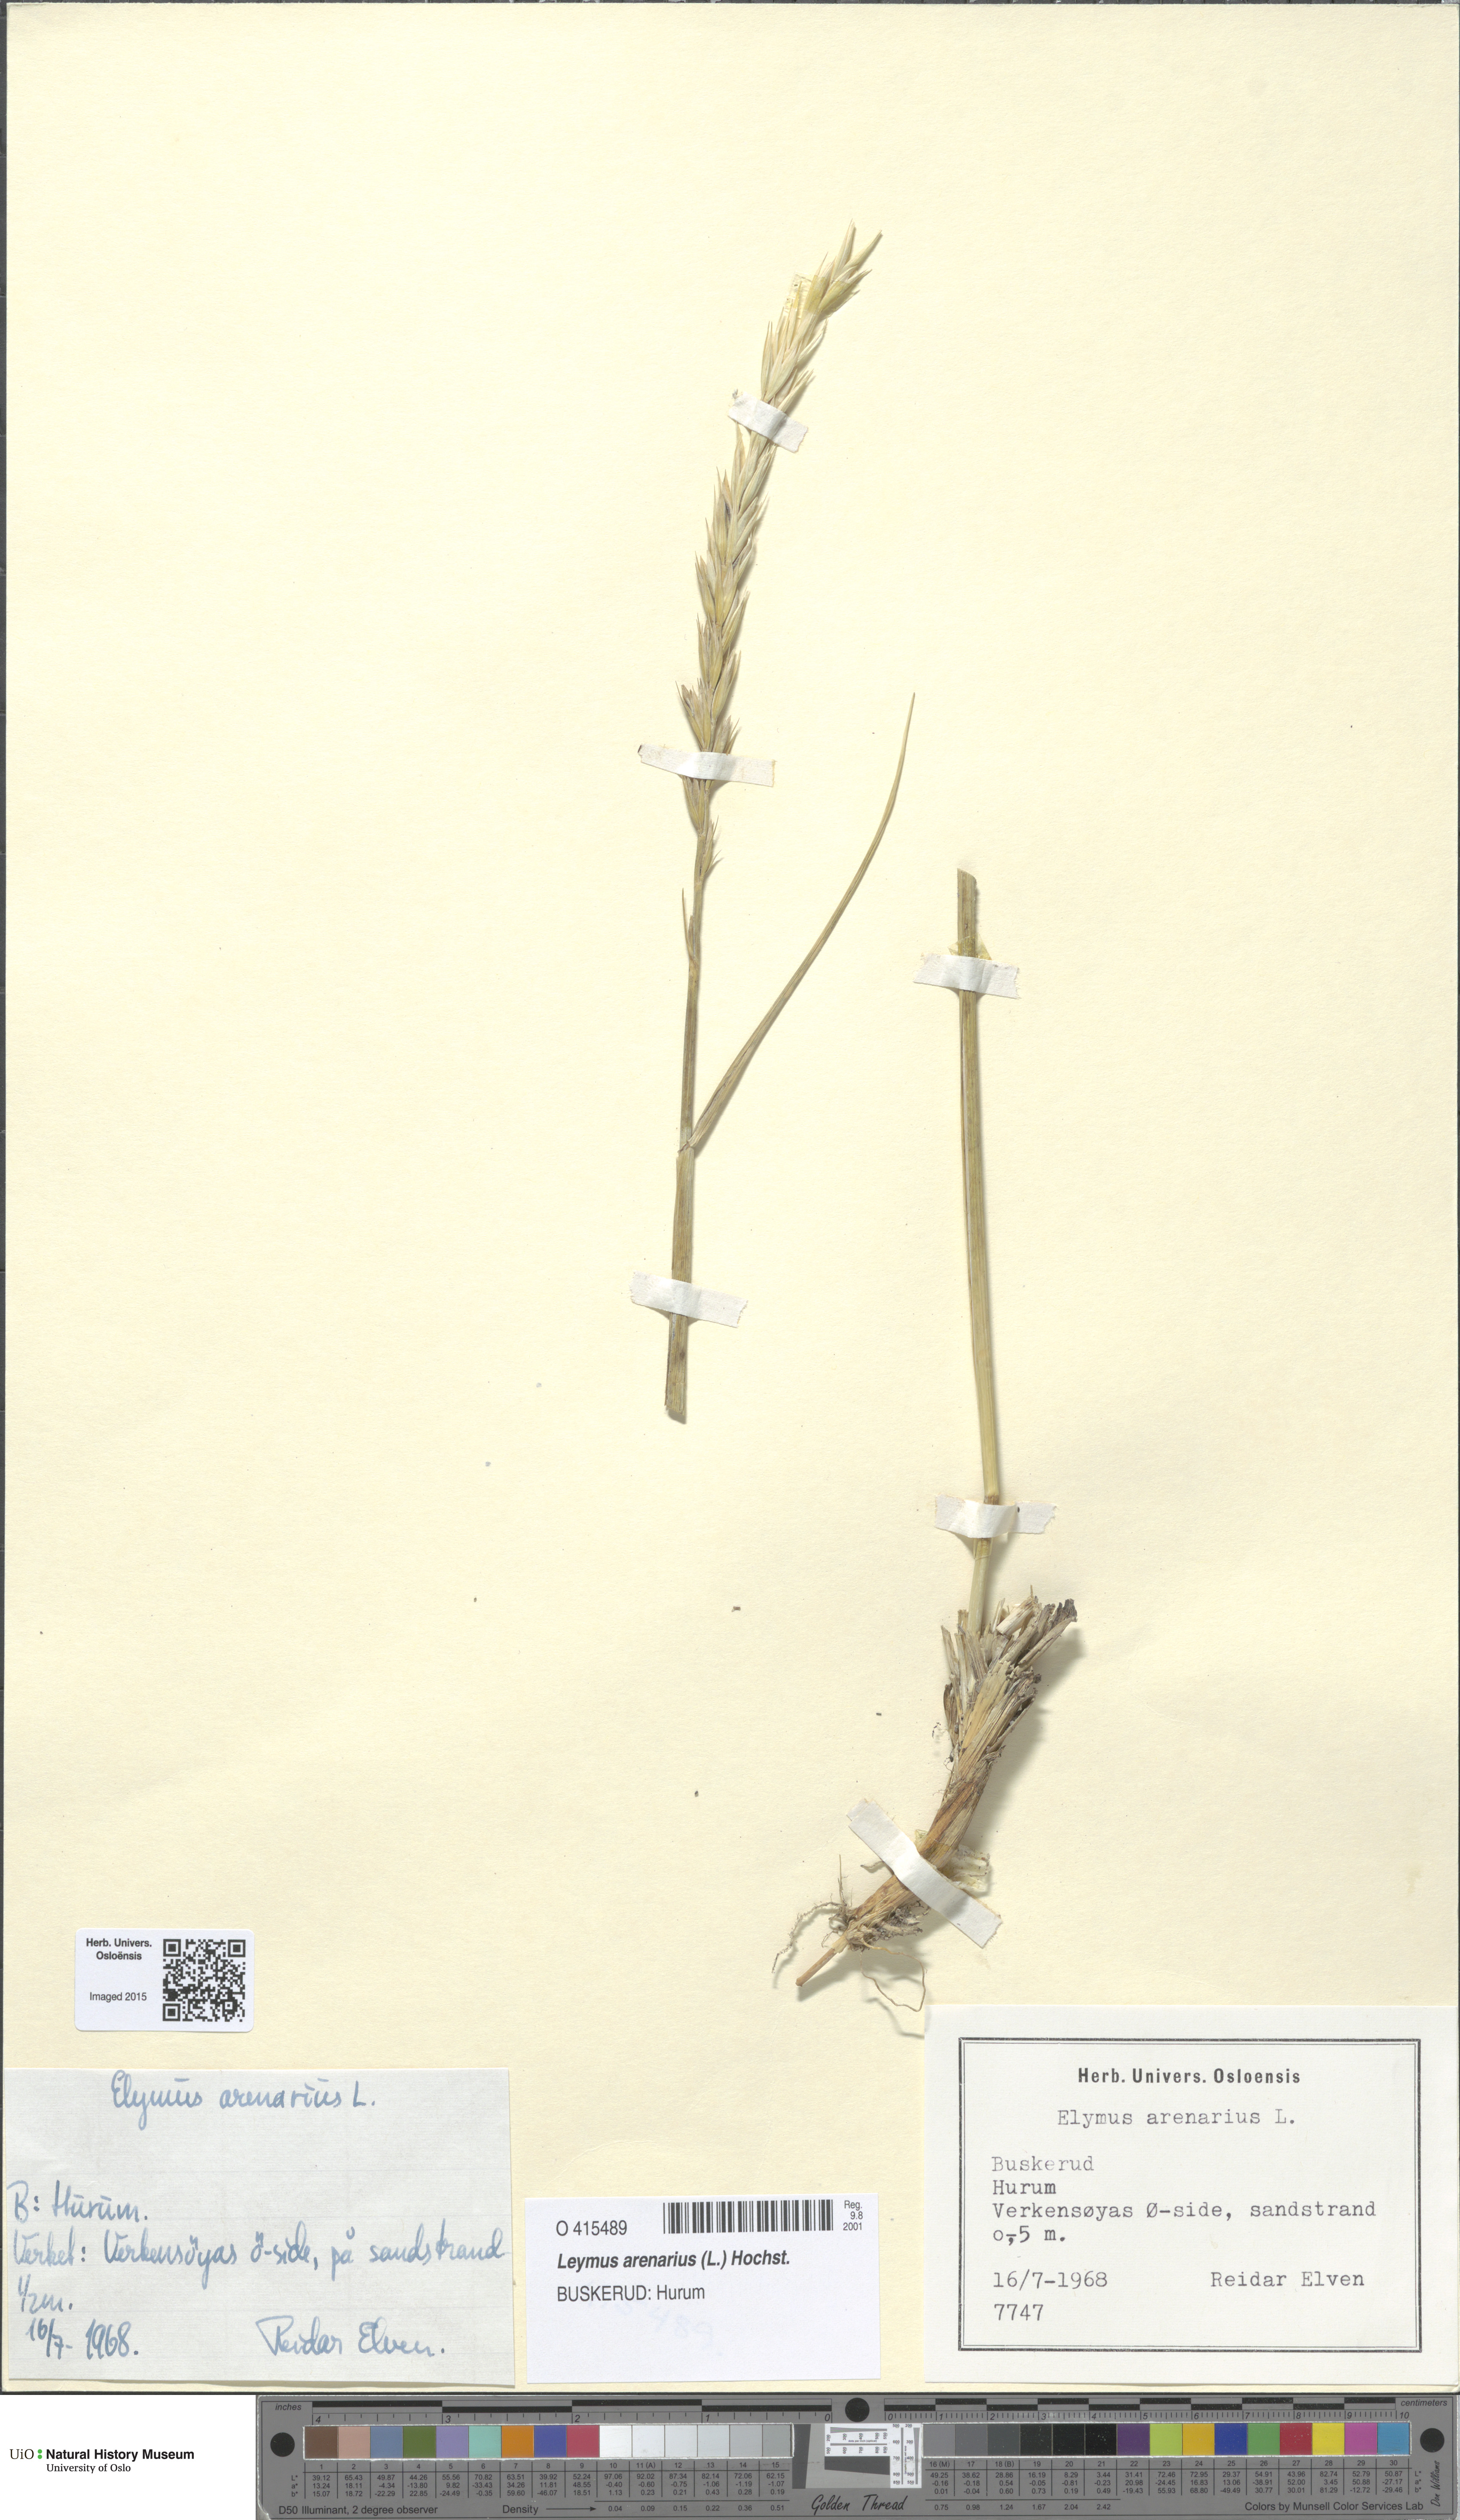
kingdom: Plantae
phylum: Tracheophyta
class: Liliopsida
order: Poales
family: Poaceae
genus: Leymus
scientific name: Leymus arenarius
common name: Lyme-grass
